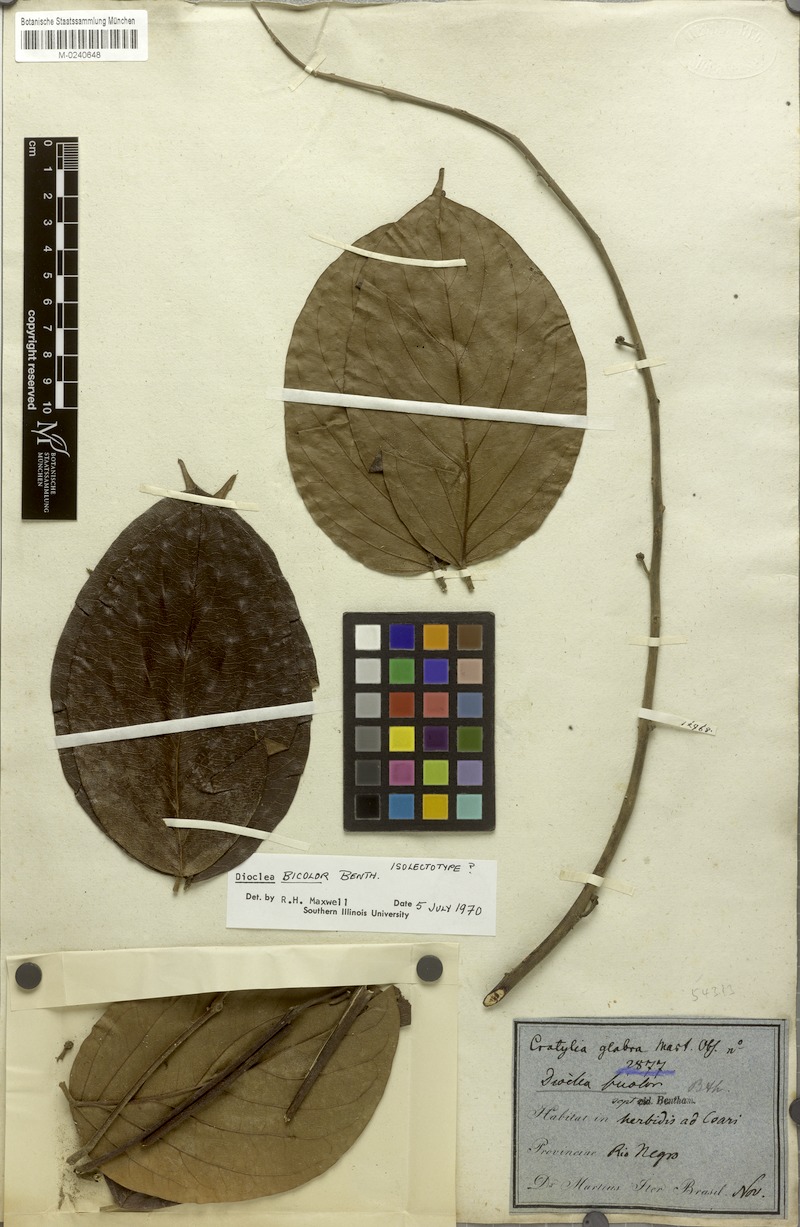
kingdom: Plantae
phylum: Tracheophyta
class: Magnoliopsida
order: Fabales
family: Fabaceae
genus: Macropsychanthus
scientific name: Macropsychanthus bicolor
